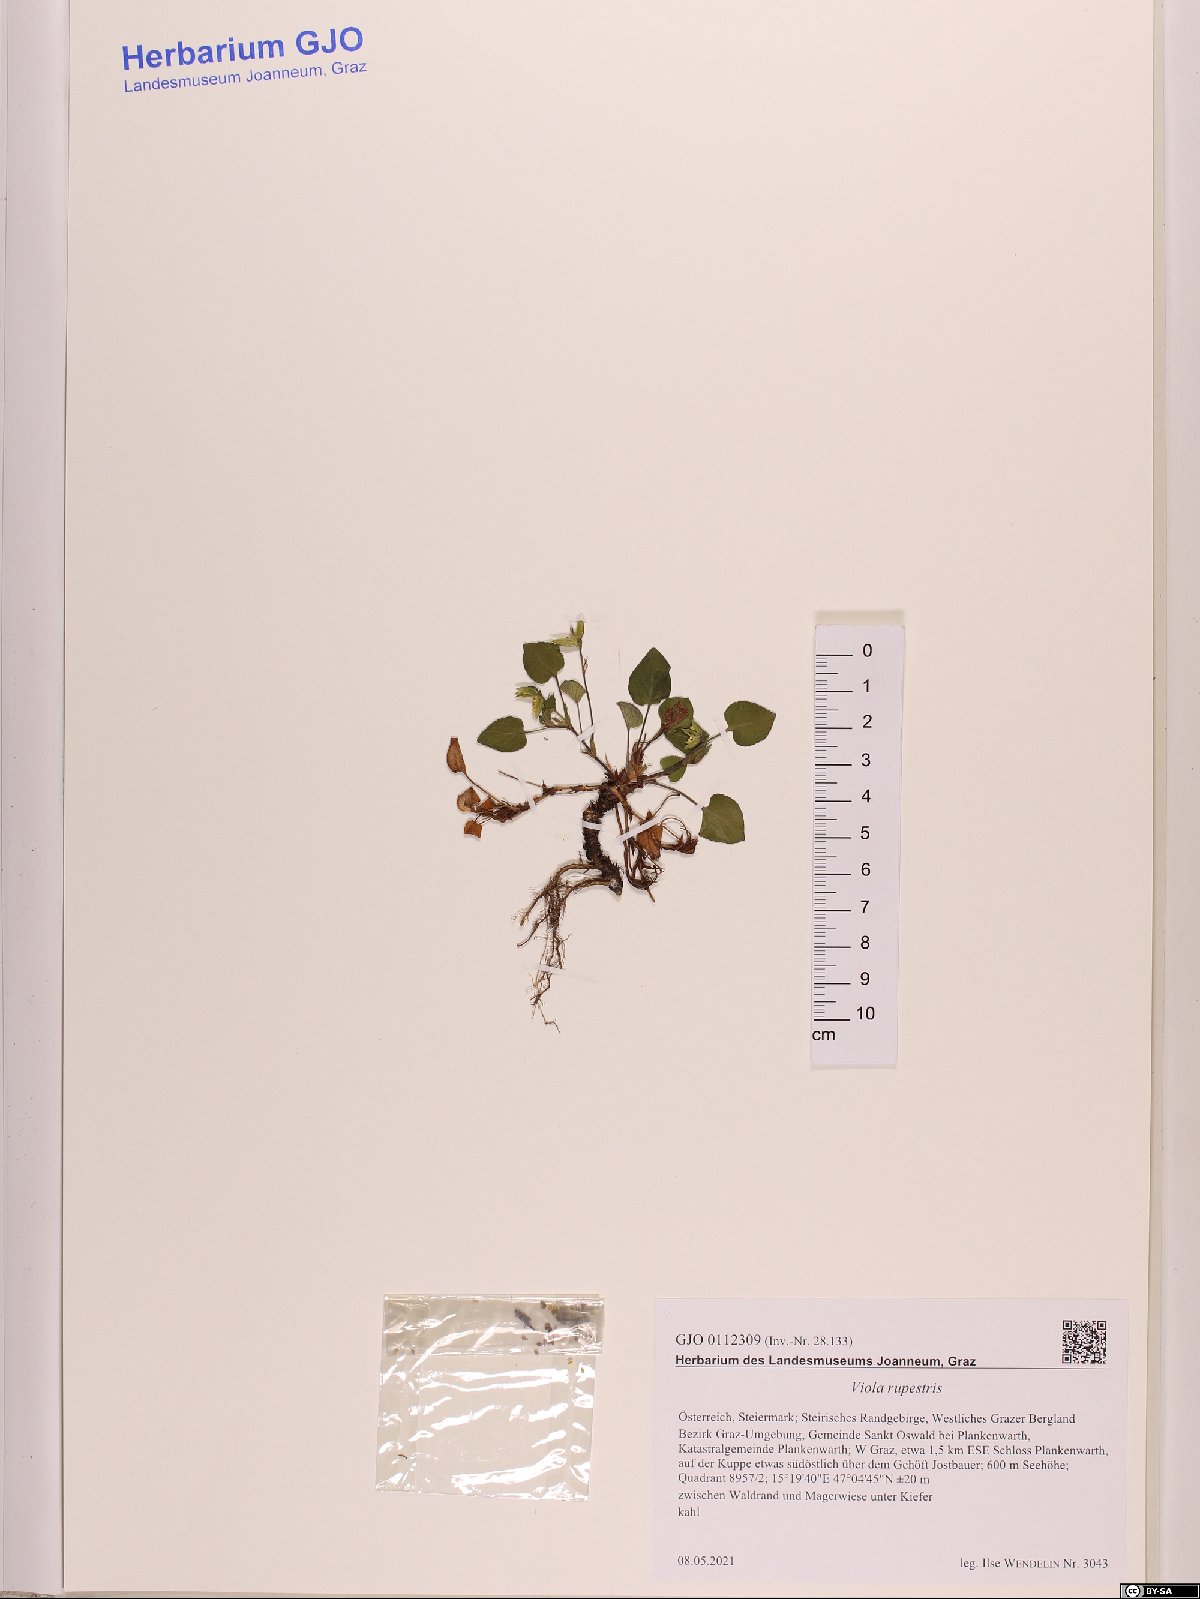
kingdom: Plantae
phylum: Tracheophyta
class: Magnoliopsida
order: Malpighiales
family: Violaceae
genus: Viola
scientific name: Viola rupestris
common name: Teesdale violet
